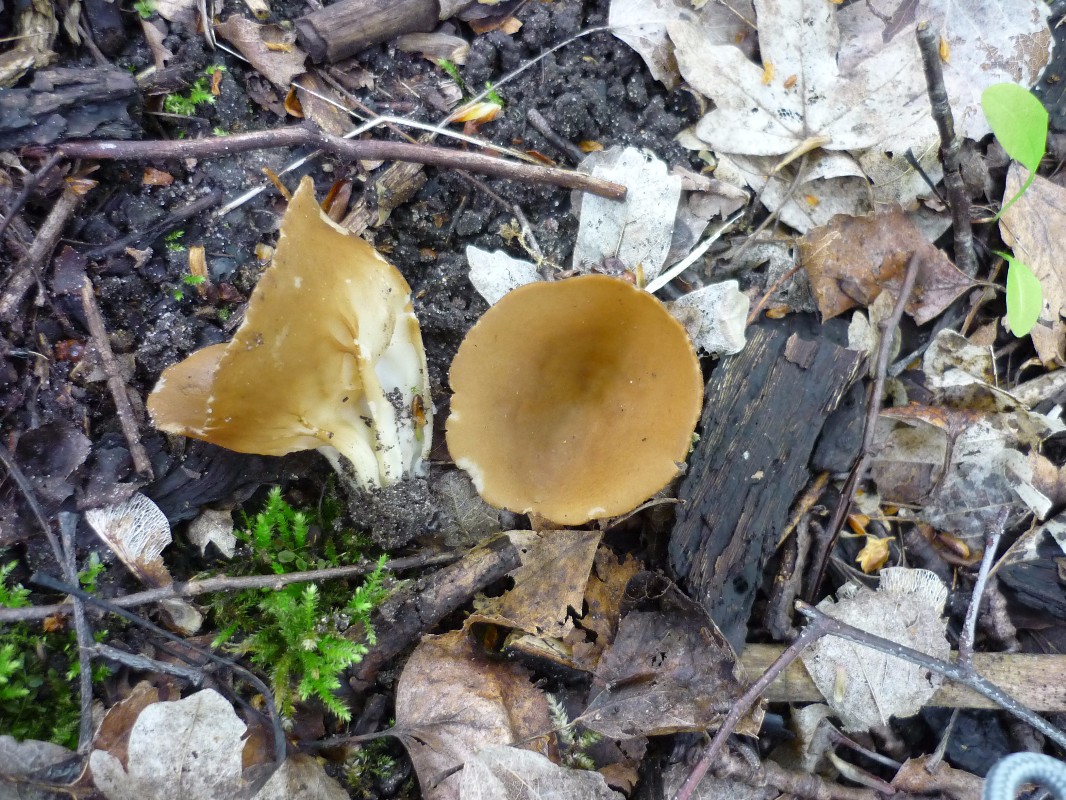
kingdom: Fungi
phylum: Ascomycota
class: Pezizomycetes
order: Pezizales
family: Helvellaceae
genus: Helvella
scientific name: Helvella acetabulum
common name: pokal-foldhat
